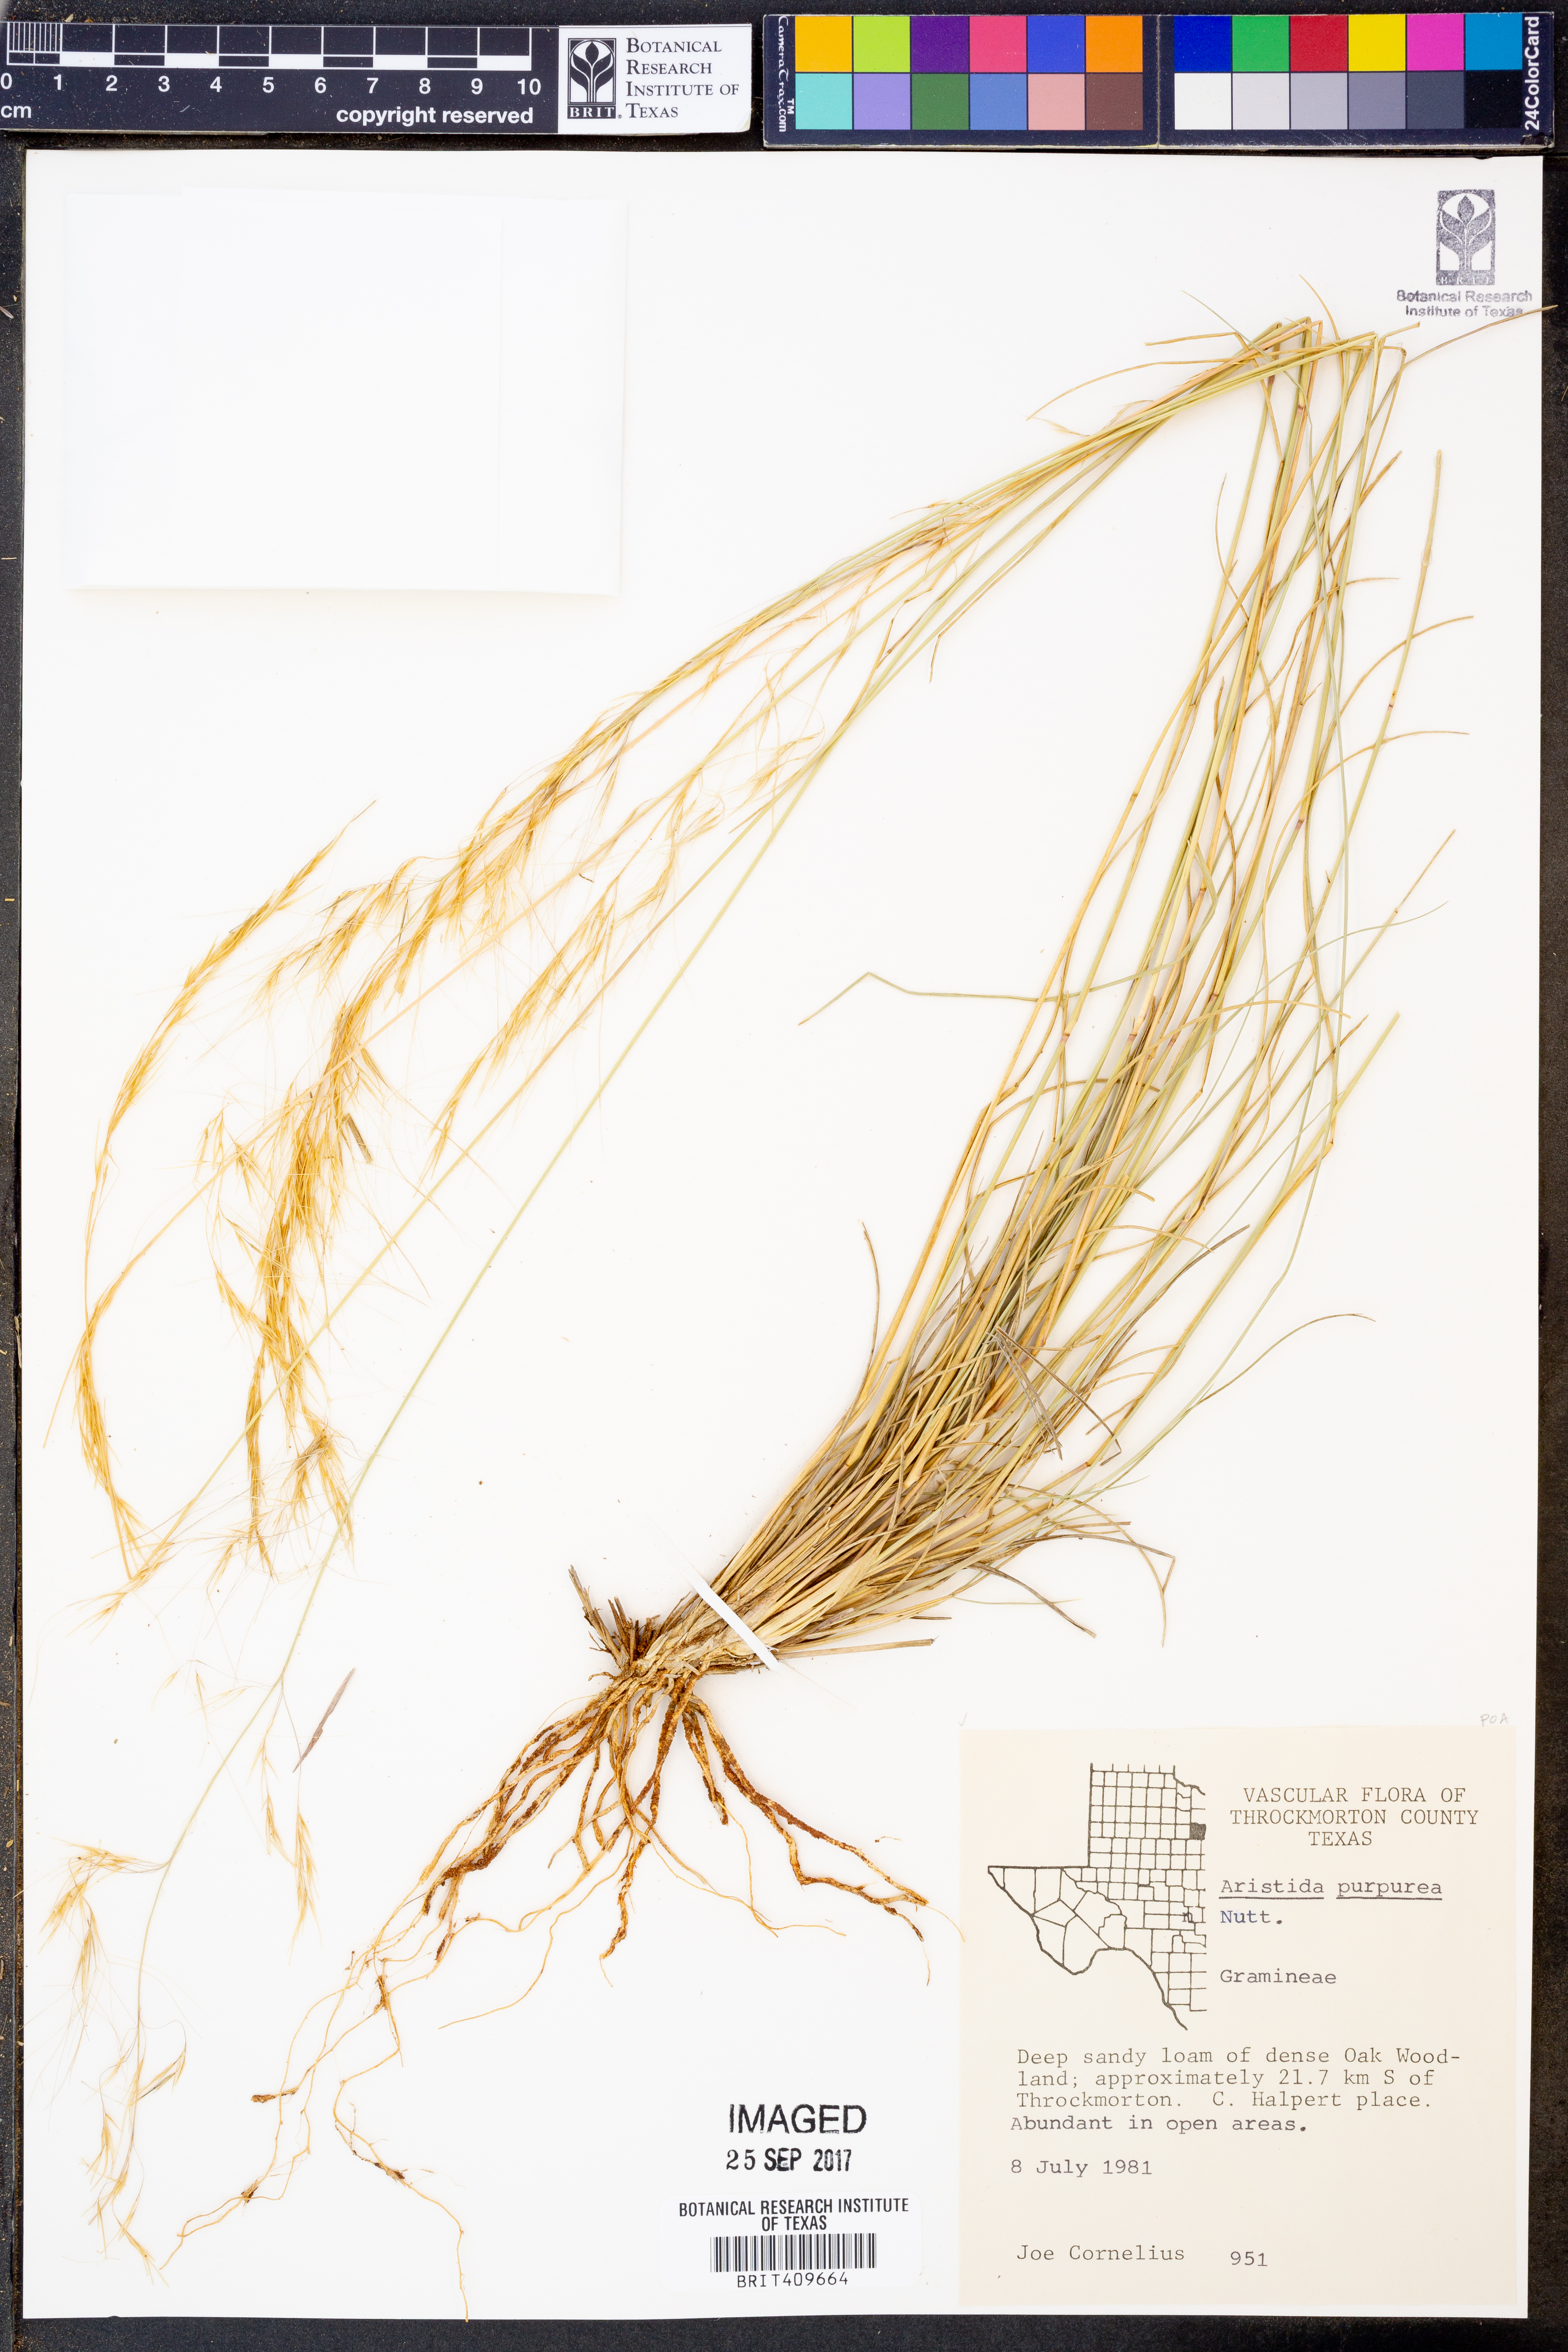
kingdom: Plantae
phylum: Tracheophyta
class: Liliopsida
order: Poales
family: Poaceae
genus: Aristida
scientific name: Aristida purpurea
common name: Purple threeawn
